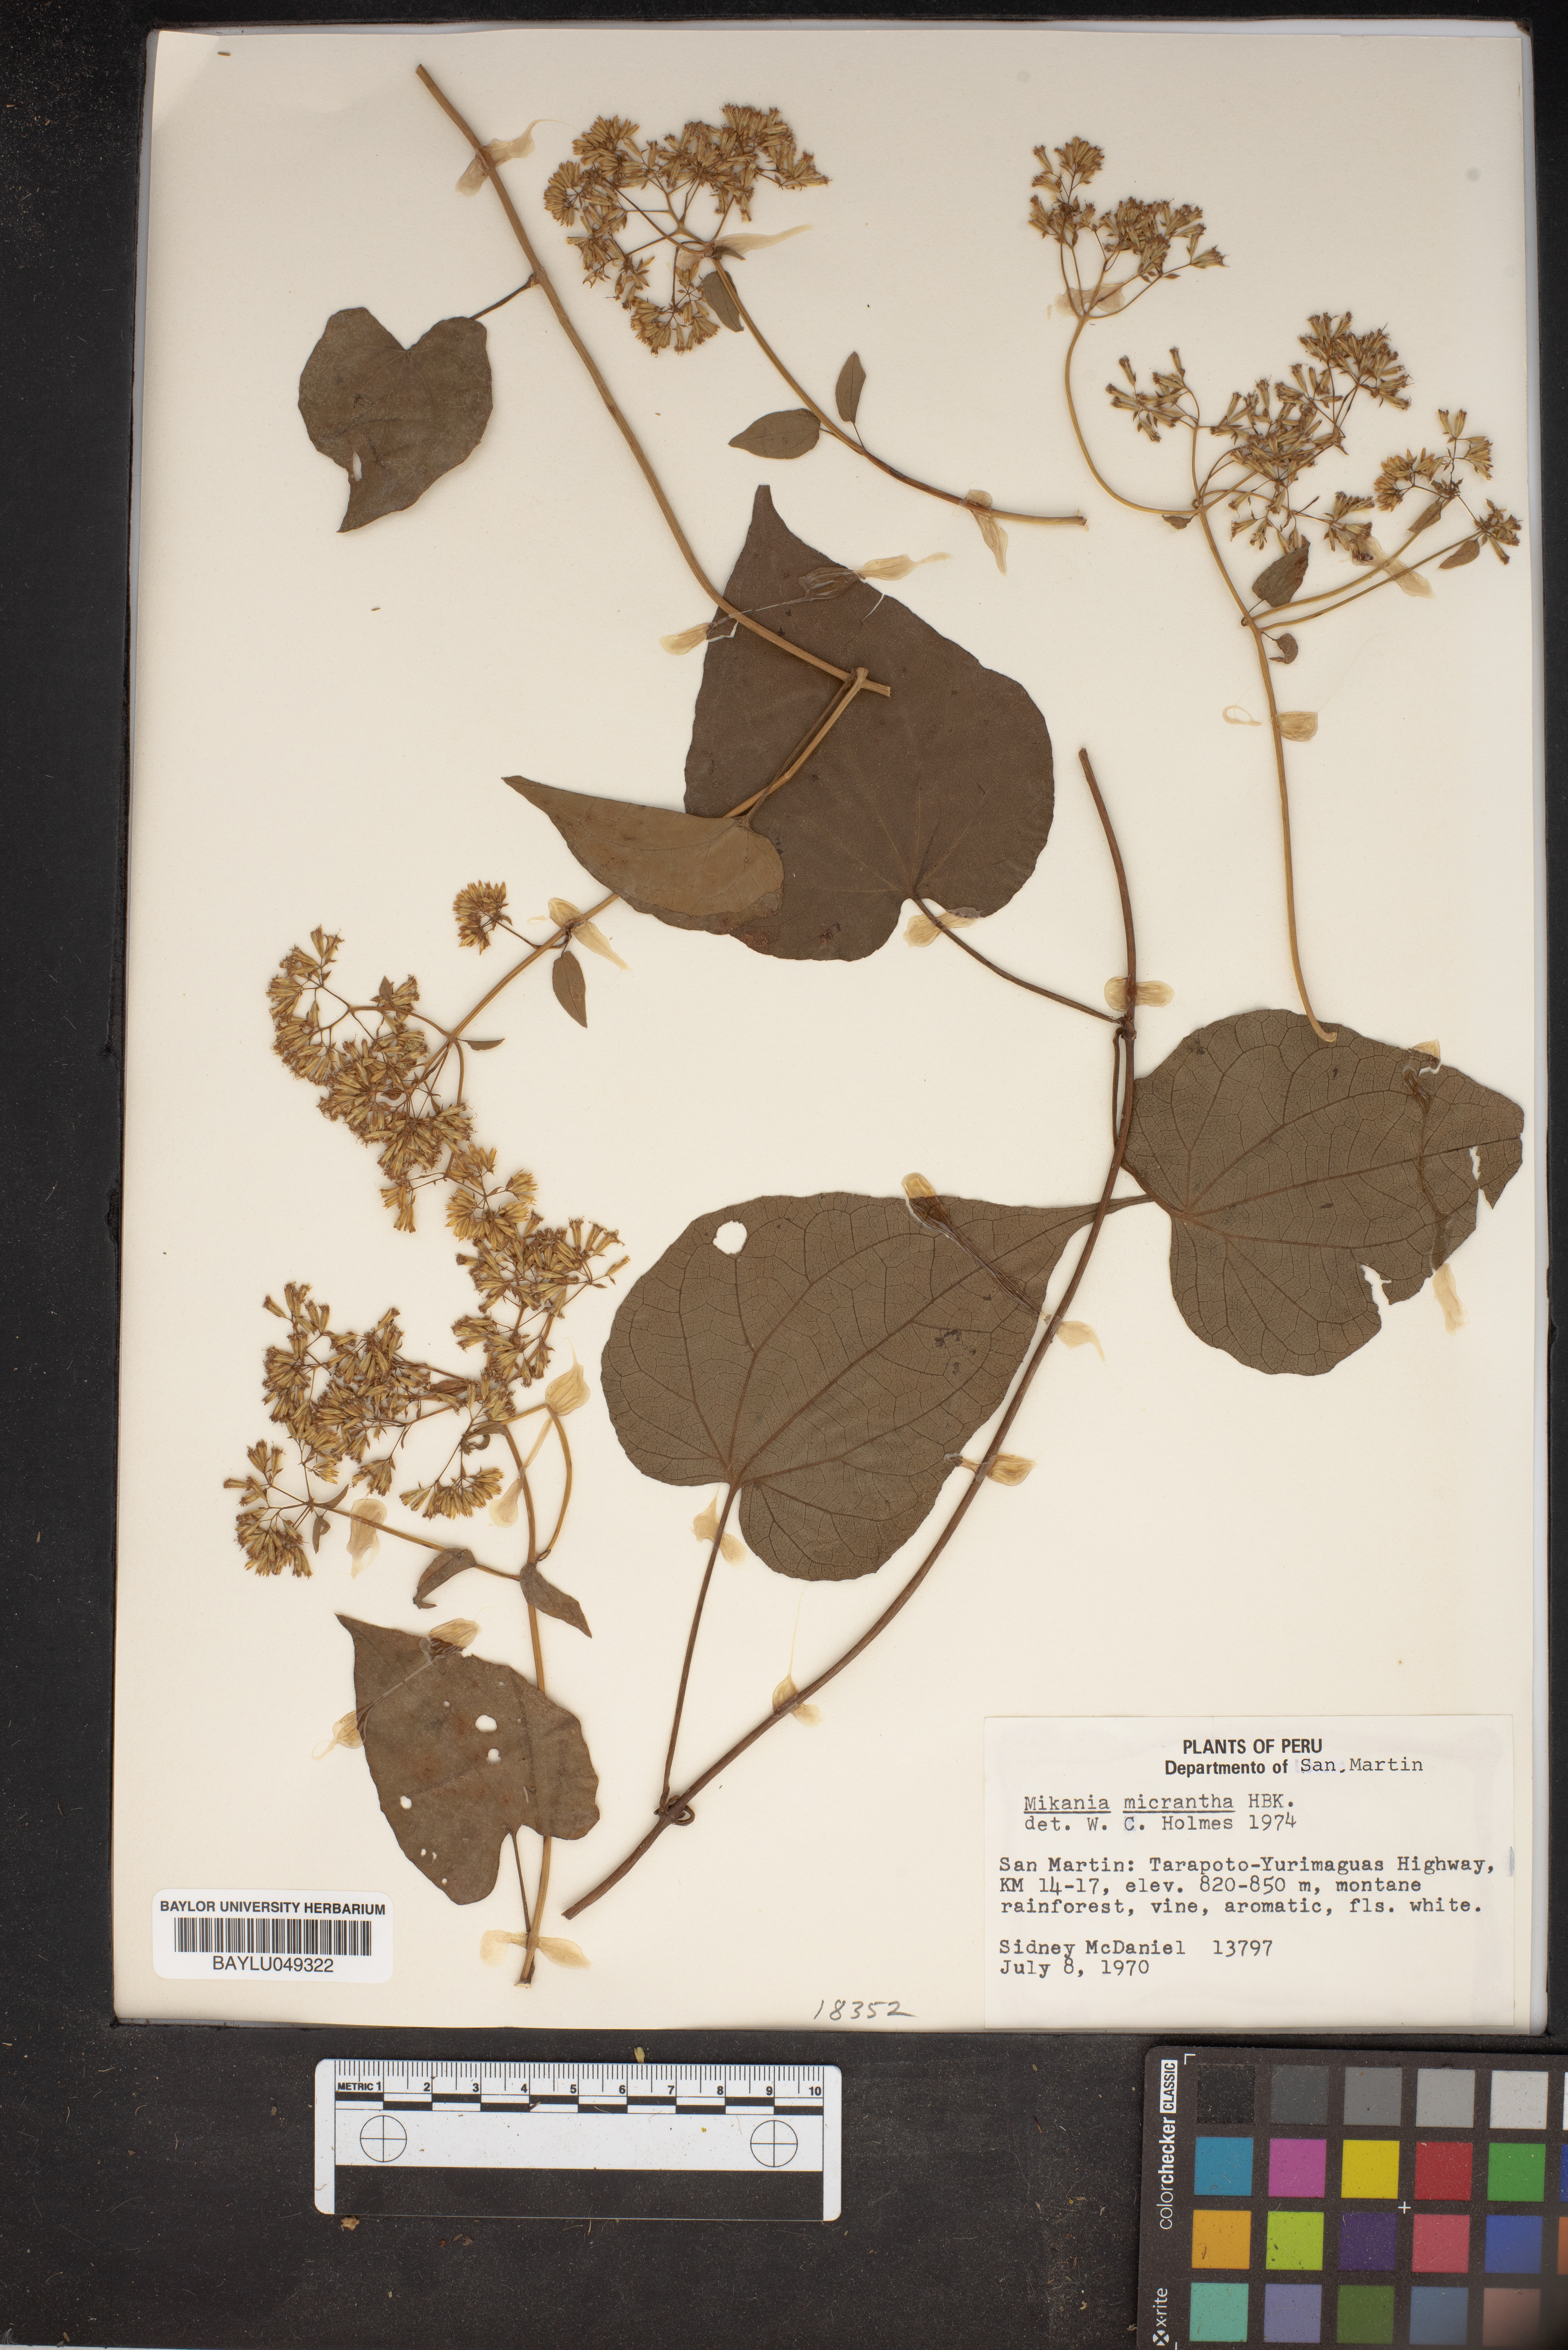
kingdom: Plantae
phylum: Tracheophyta
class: Magnoliopsida
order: Asterales
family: Asteraceae
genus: Mikania
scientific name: Mikania micrantha
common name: Mile-a-minute
